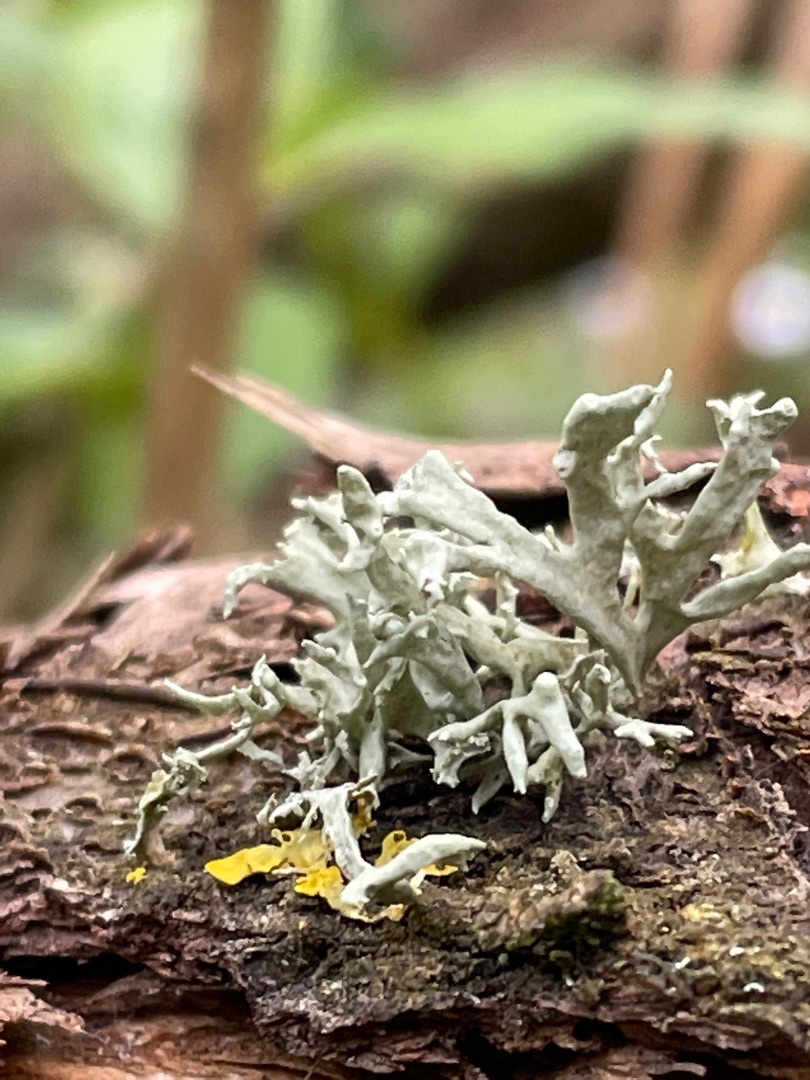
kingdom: Fungi
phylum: Ascomycota
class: Lecanoromycetes
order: Lecanorales
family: Ramalinaceae
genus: Ramalina
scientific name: Ramalina fastigiata
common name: Tue-grenlav
